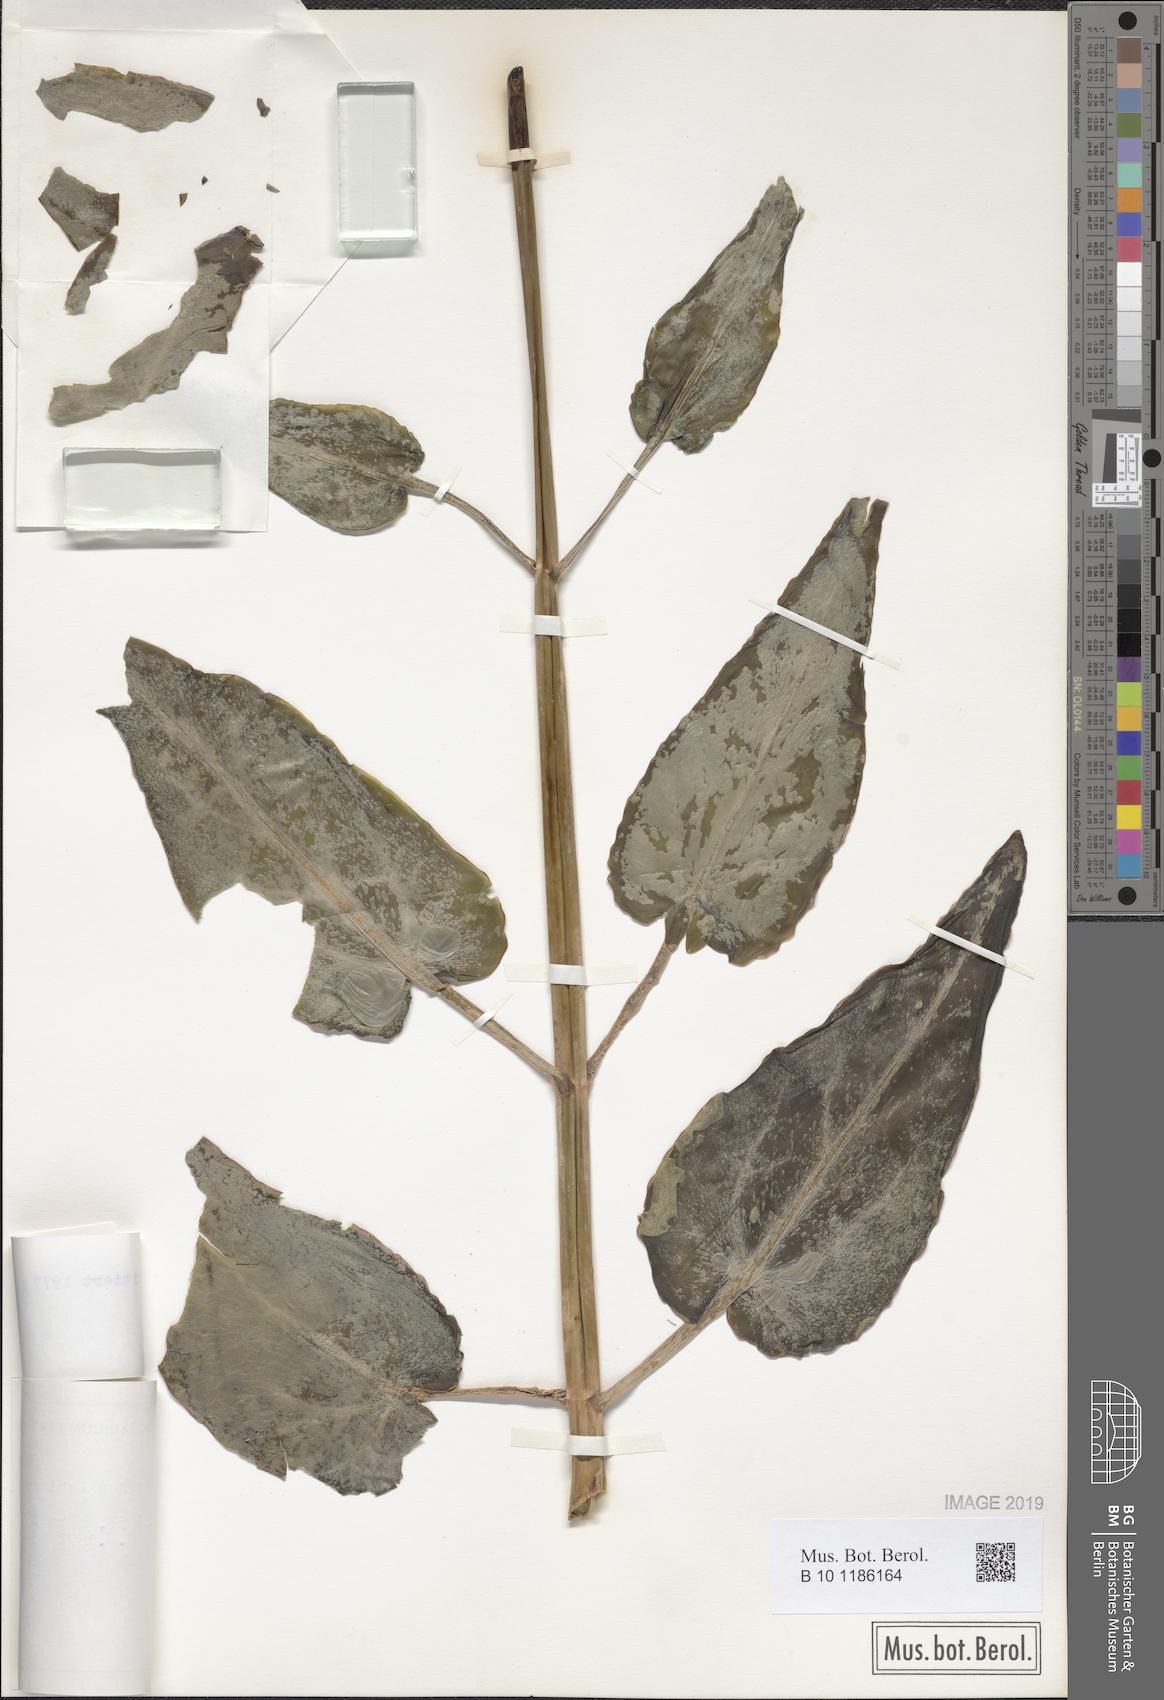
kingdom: Plantae
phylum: Tracheophyta
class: Magnoliopsida
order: Saxifragales
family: Crassulaceae
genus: Kalanchoe
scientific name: Kalanchoe mitejea
